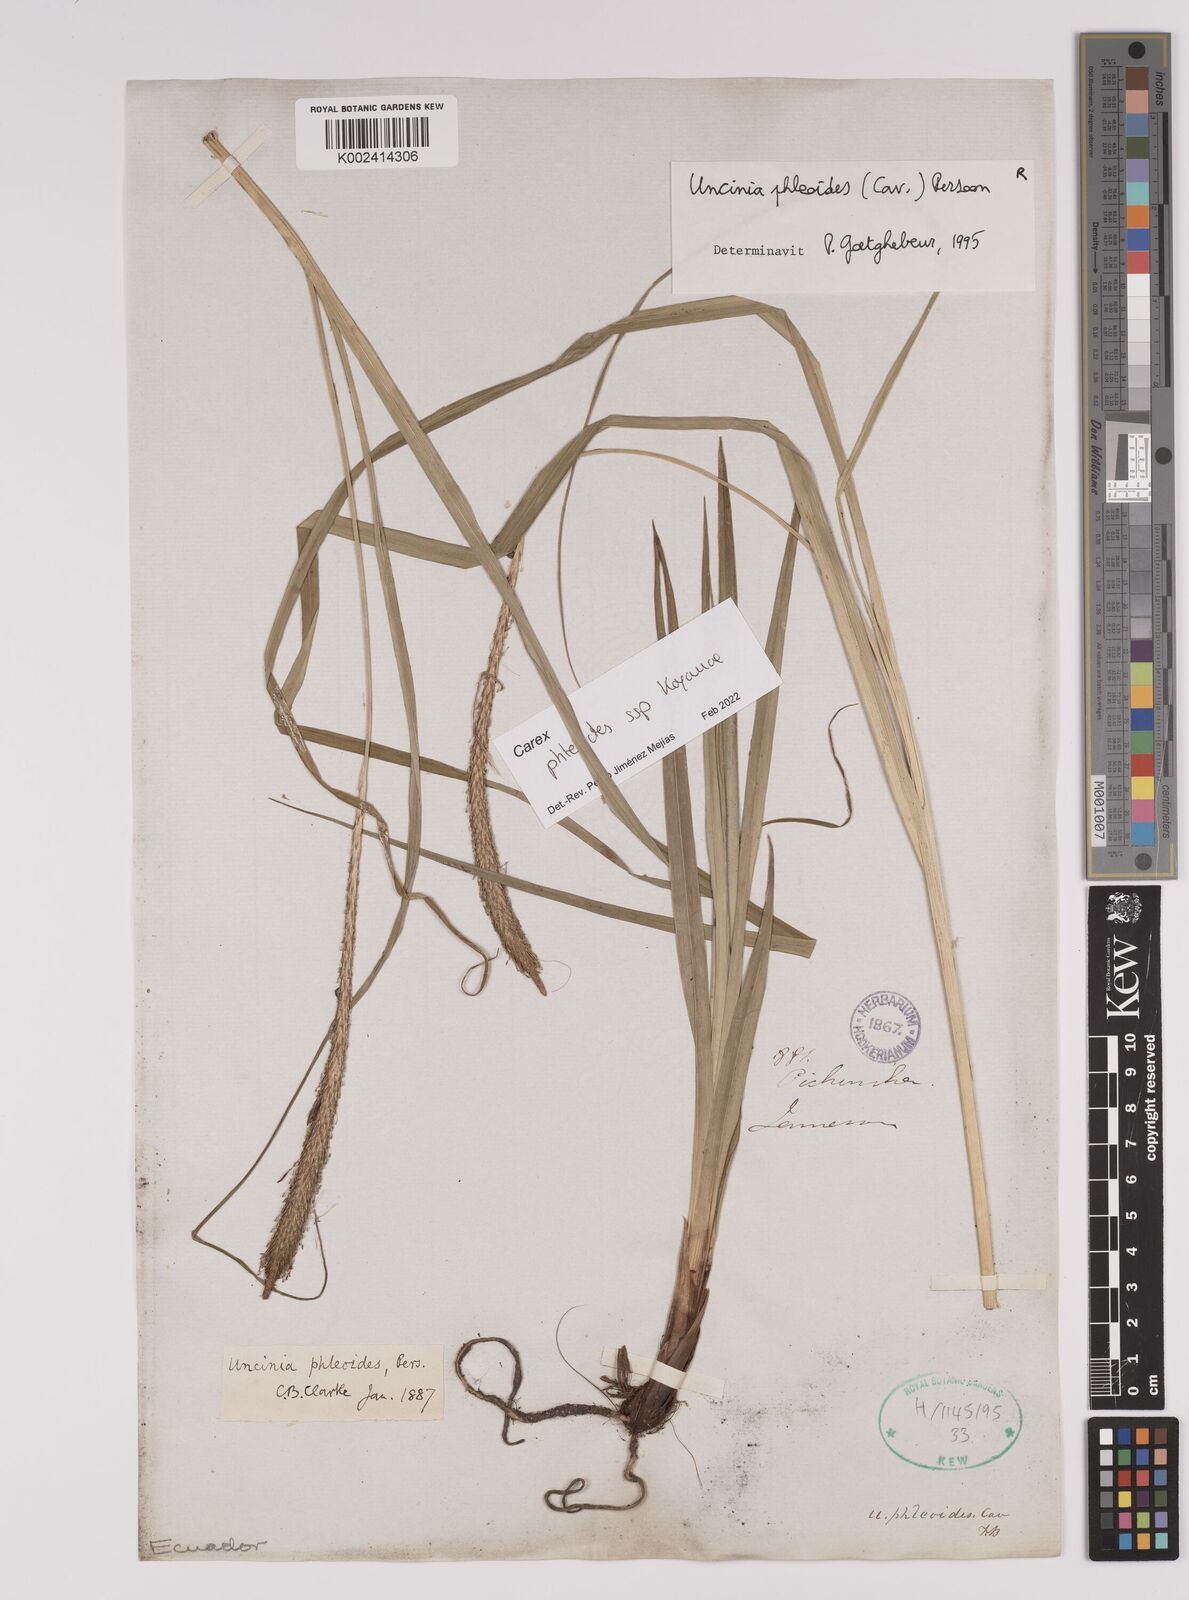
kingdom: Plantae
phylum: Tracheophyta
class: Liliopsida
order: Poales
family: Cyperaceae
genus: Carex
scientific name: Carex phleoides
